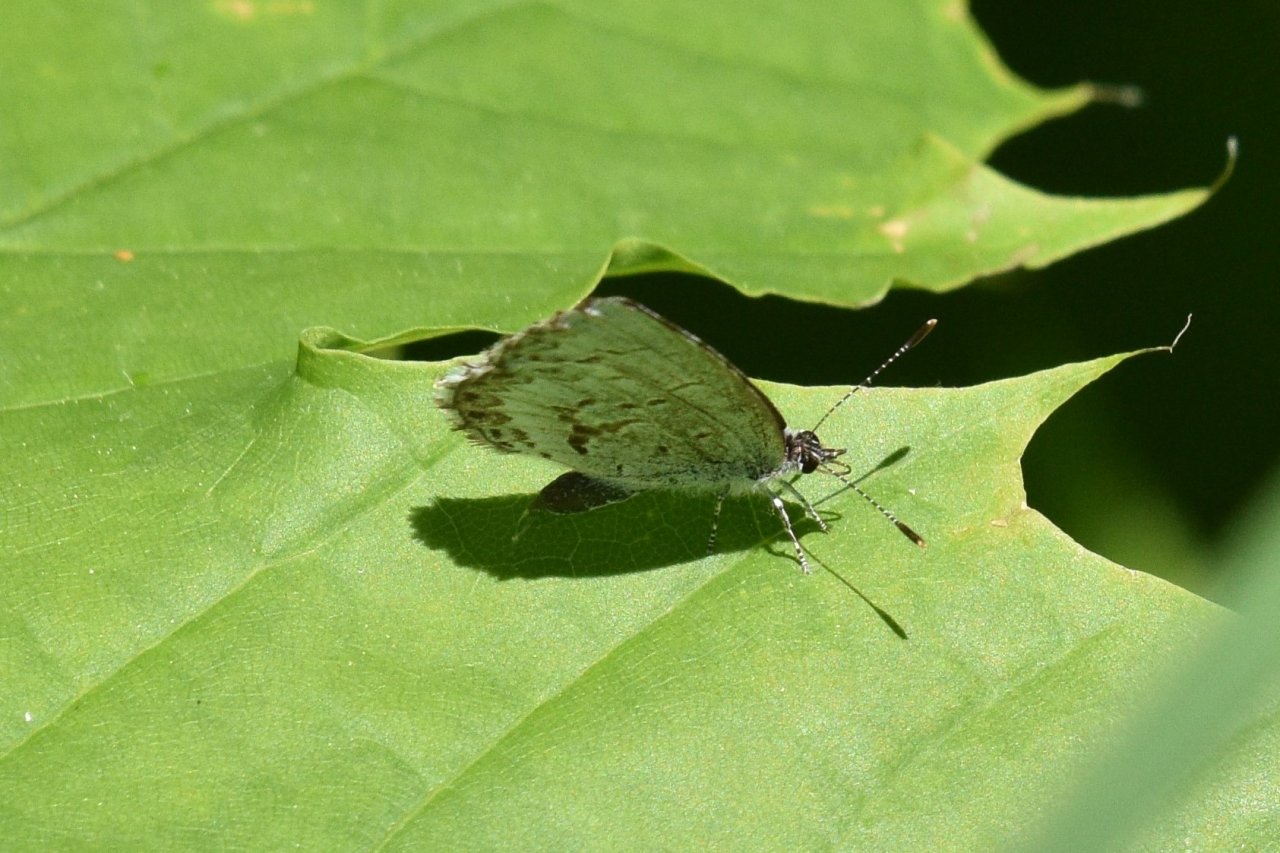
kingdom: Animalia
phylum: Arthropoda
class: Insecta
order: Lepidoptera
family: Lycaenidae
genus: Celastrina
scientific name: Celastrina lucia
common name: Northern Spring Azure
